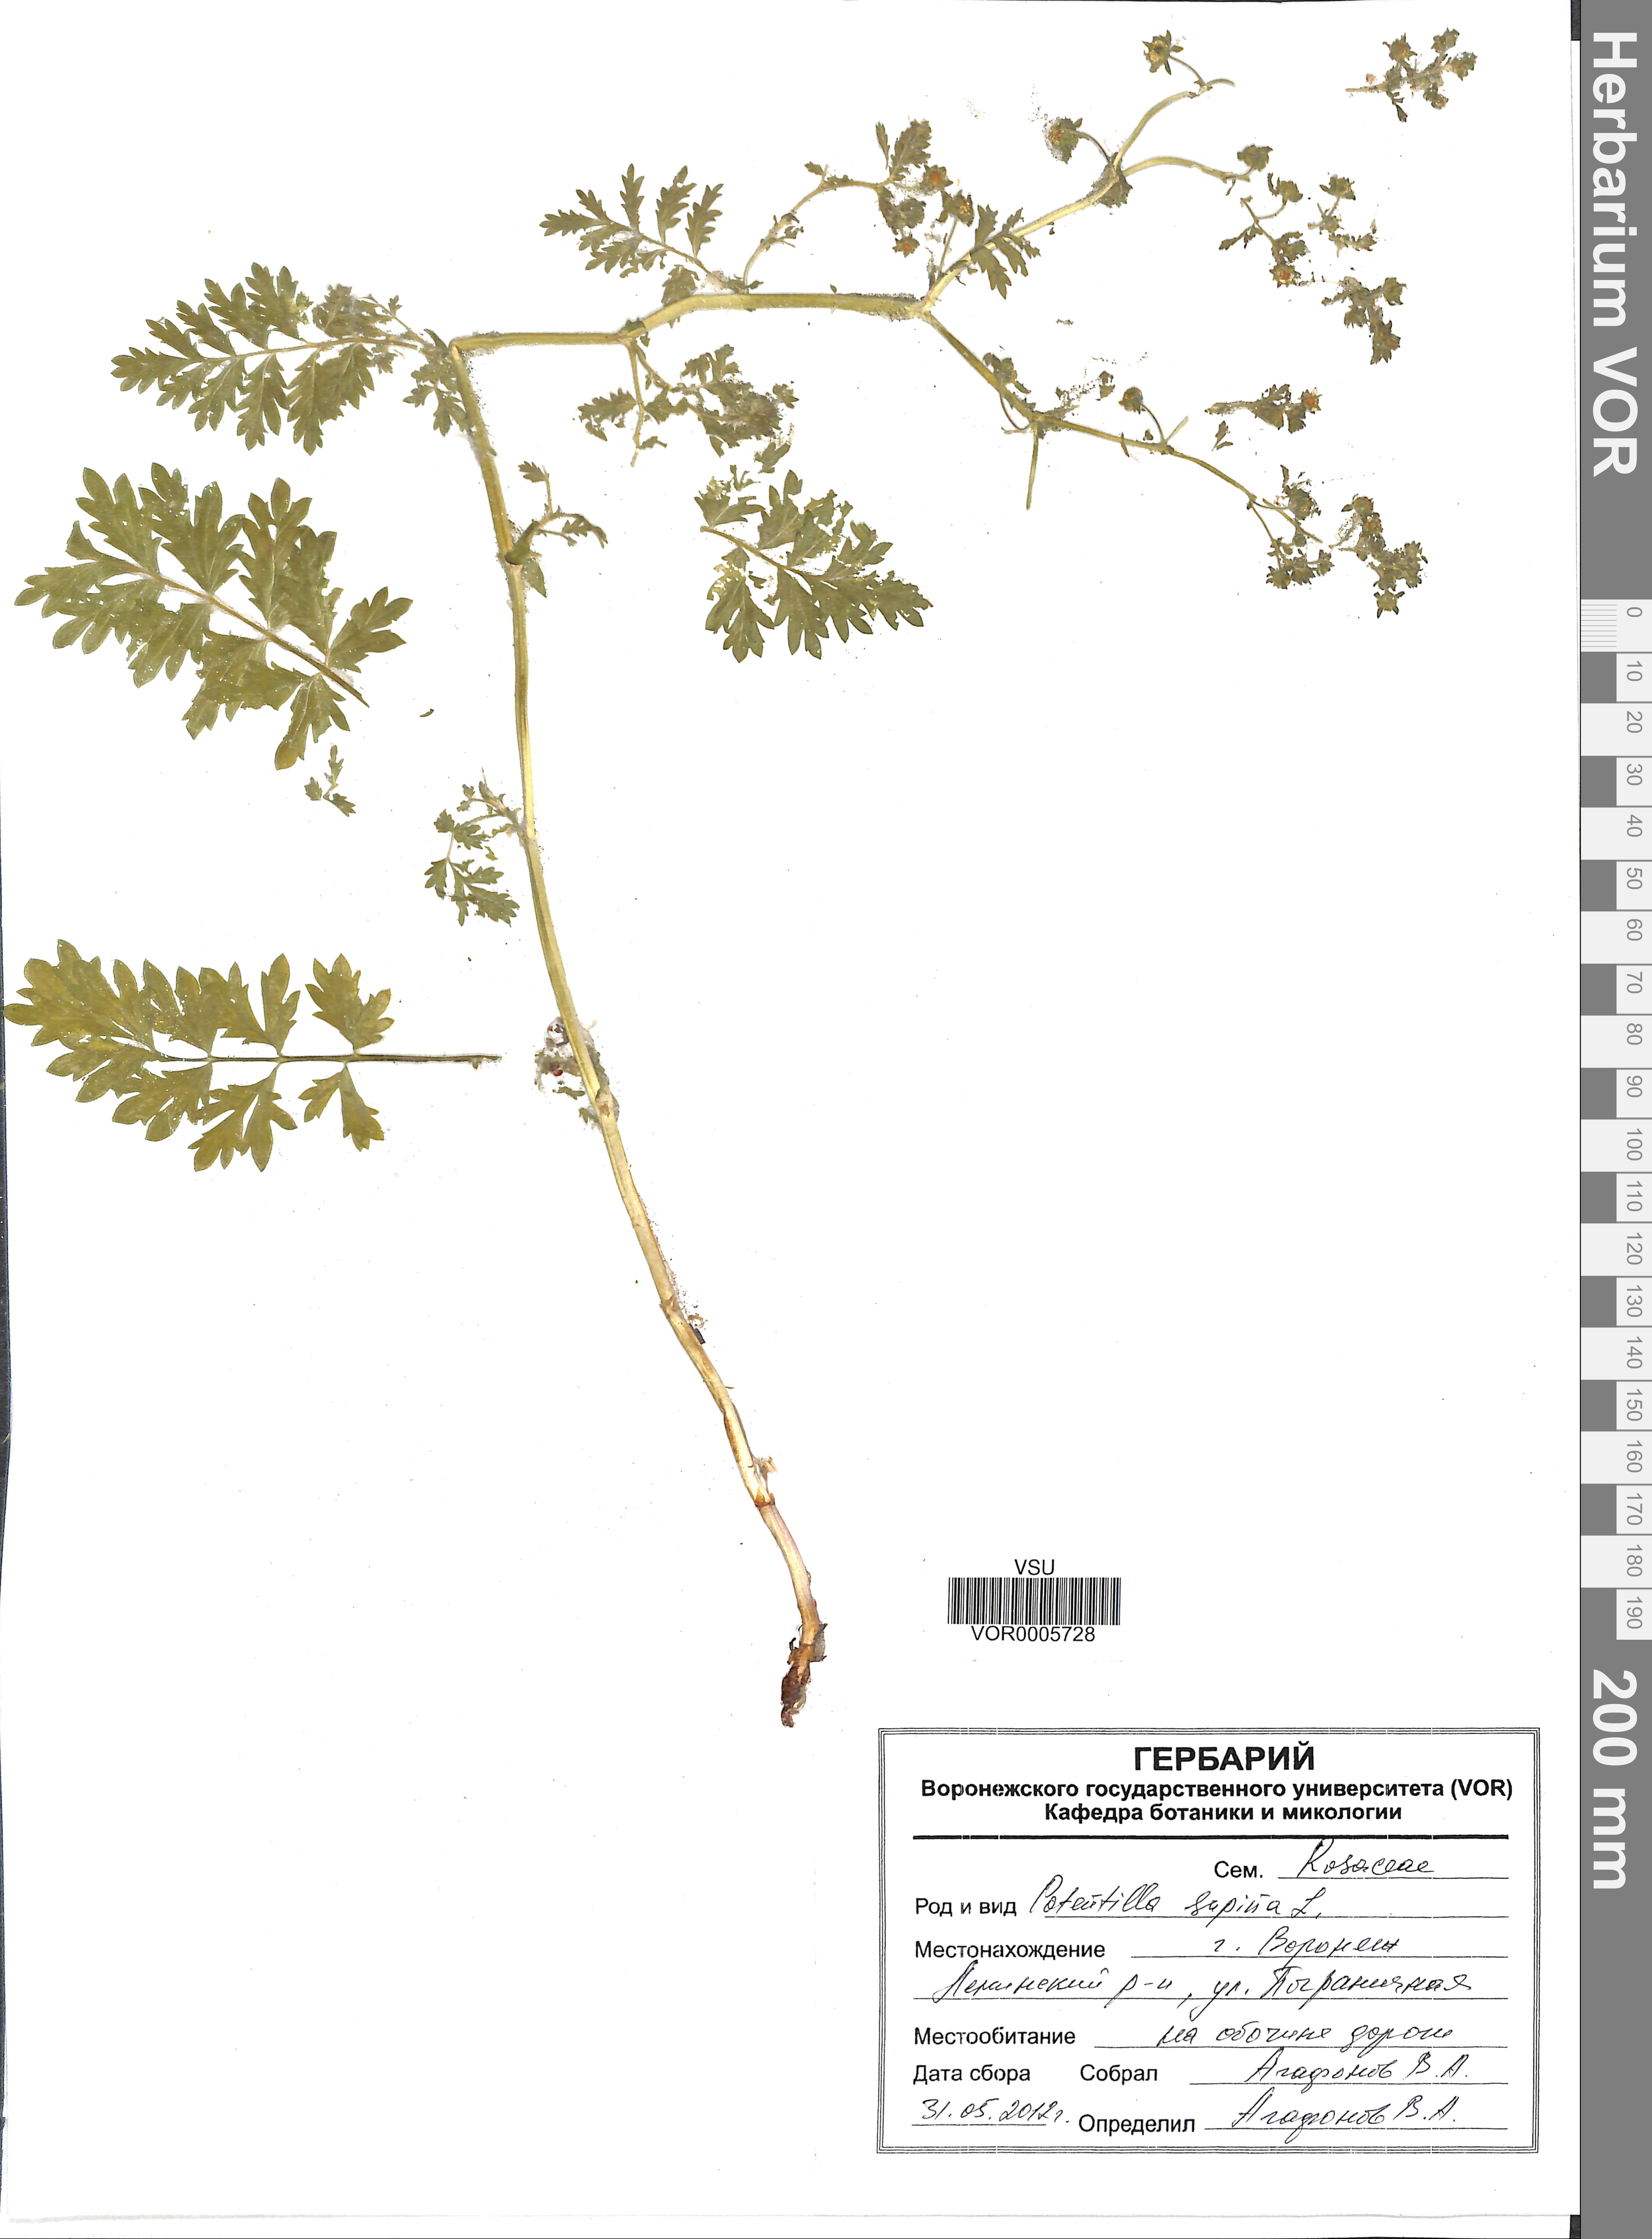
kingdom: Plantae
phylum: Tracheophyta
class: Magnoliopsida
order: Rosales
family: Rosaceae
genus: Potentilla
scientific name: Potentilla supina
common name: Prostrate cinquefoil
